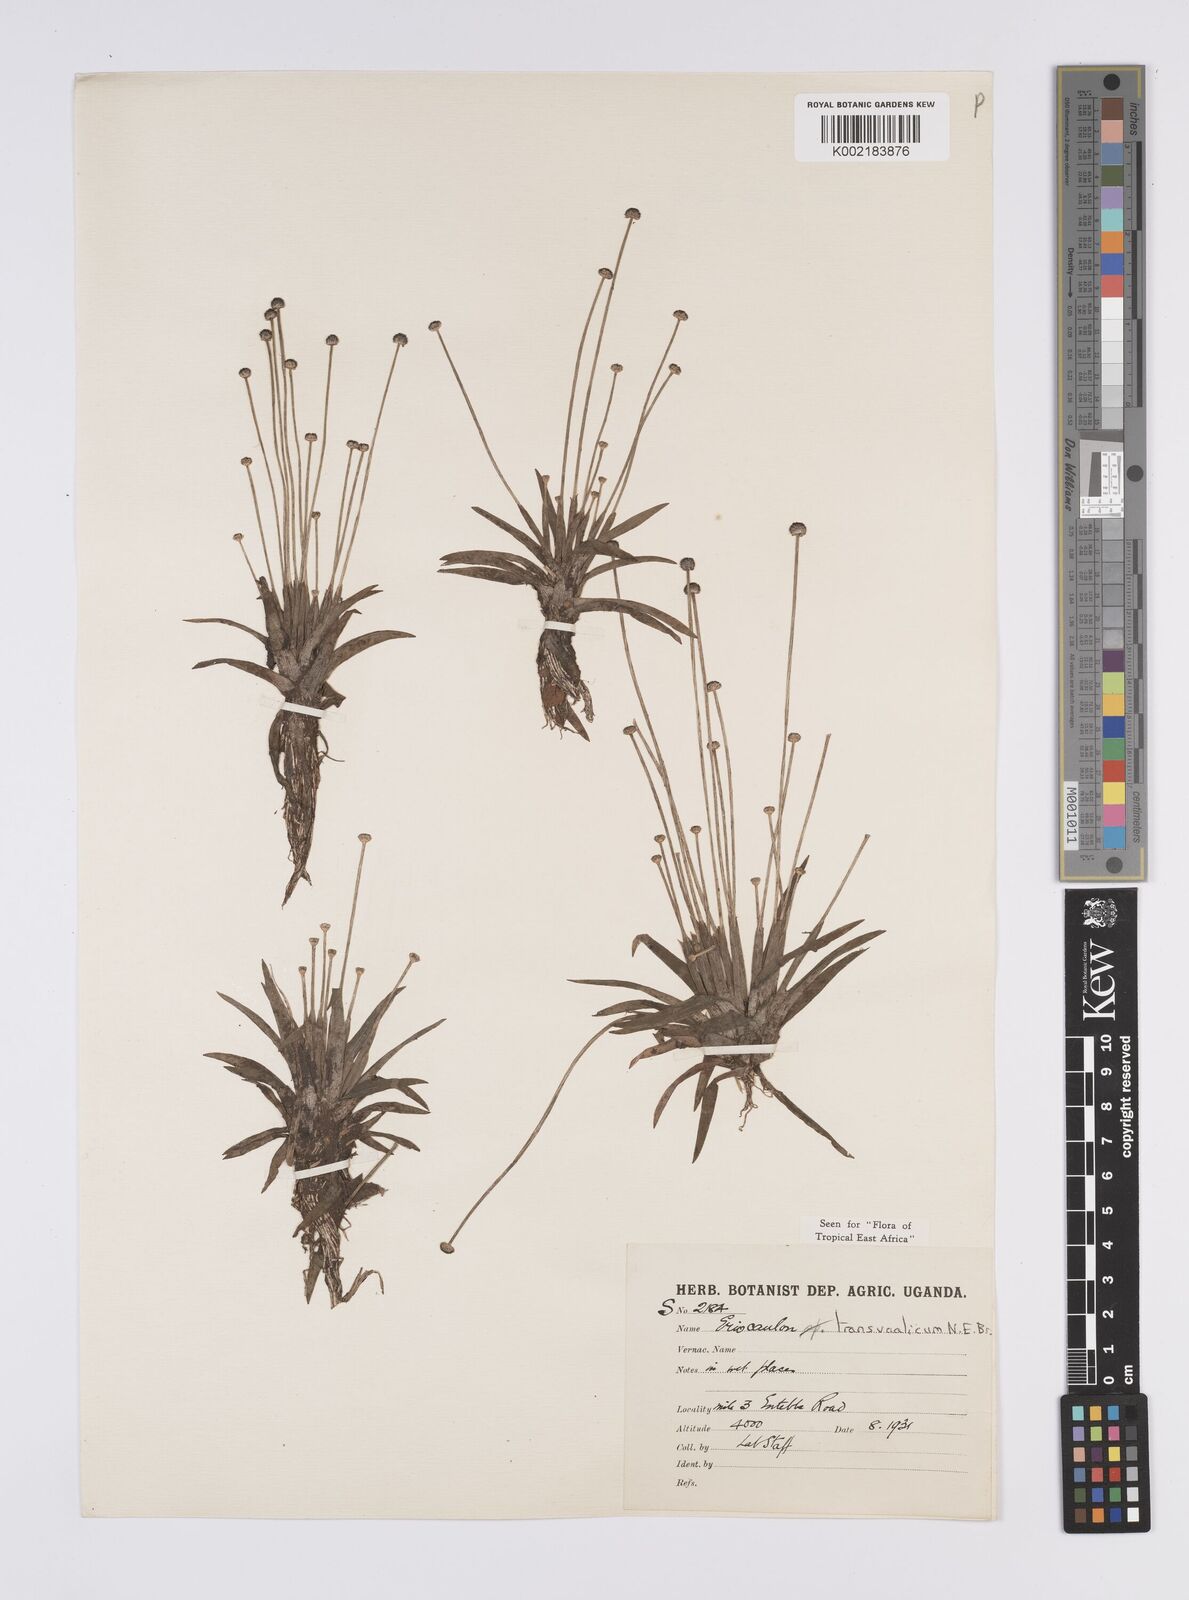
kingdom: Plantae
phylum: Tracheophyta
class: Liliopsida
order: Poales
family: Eriocaulaceae
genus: Eriocaulon
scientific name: Eriocaulon transvaalicum
